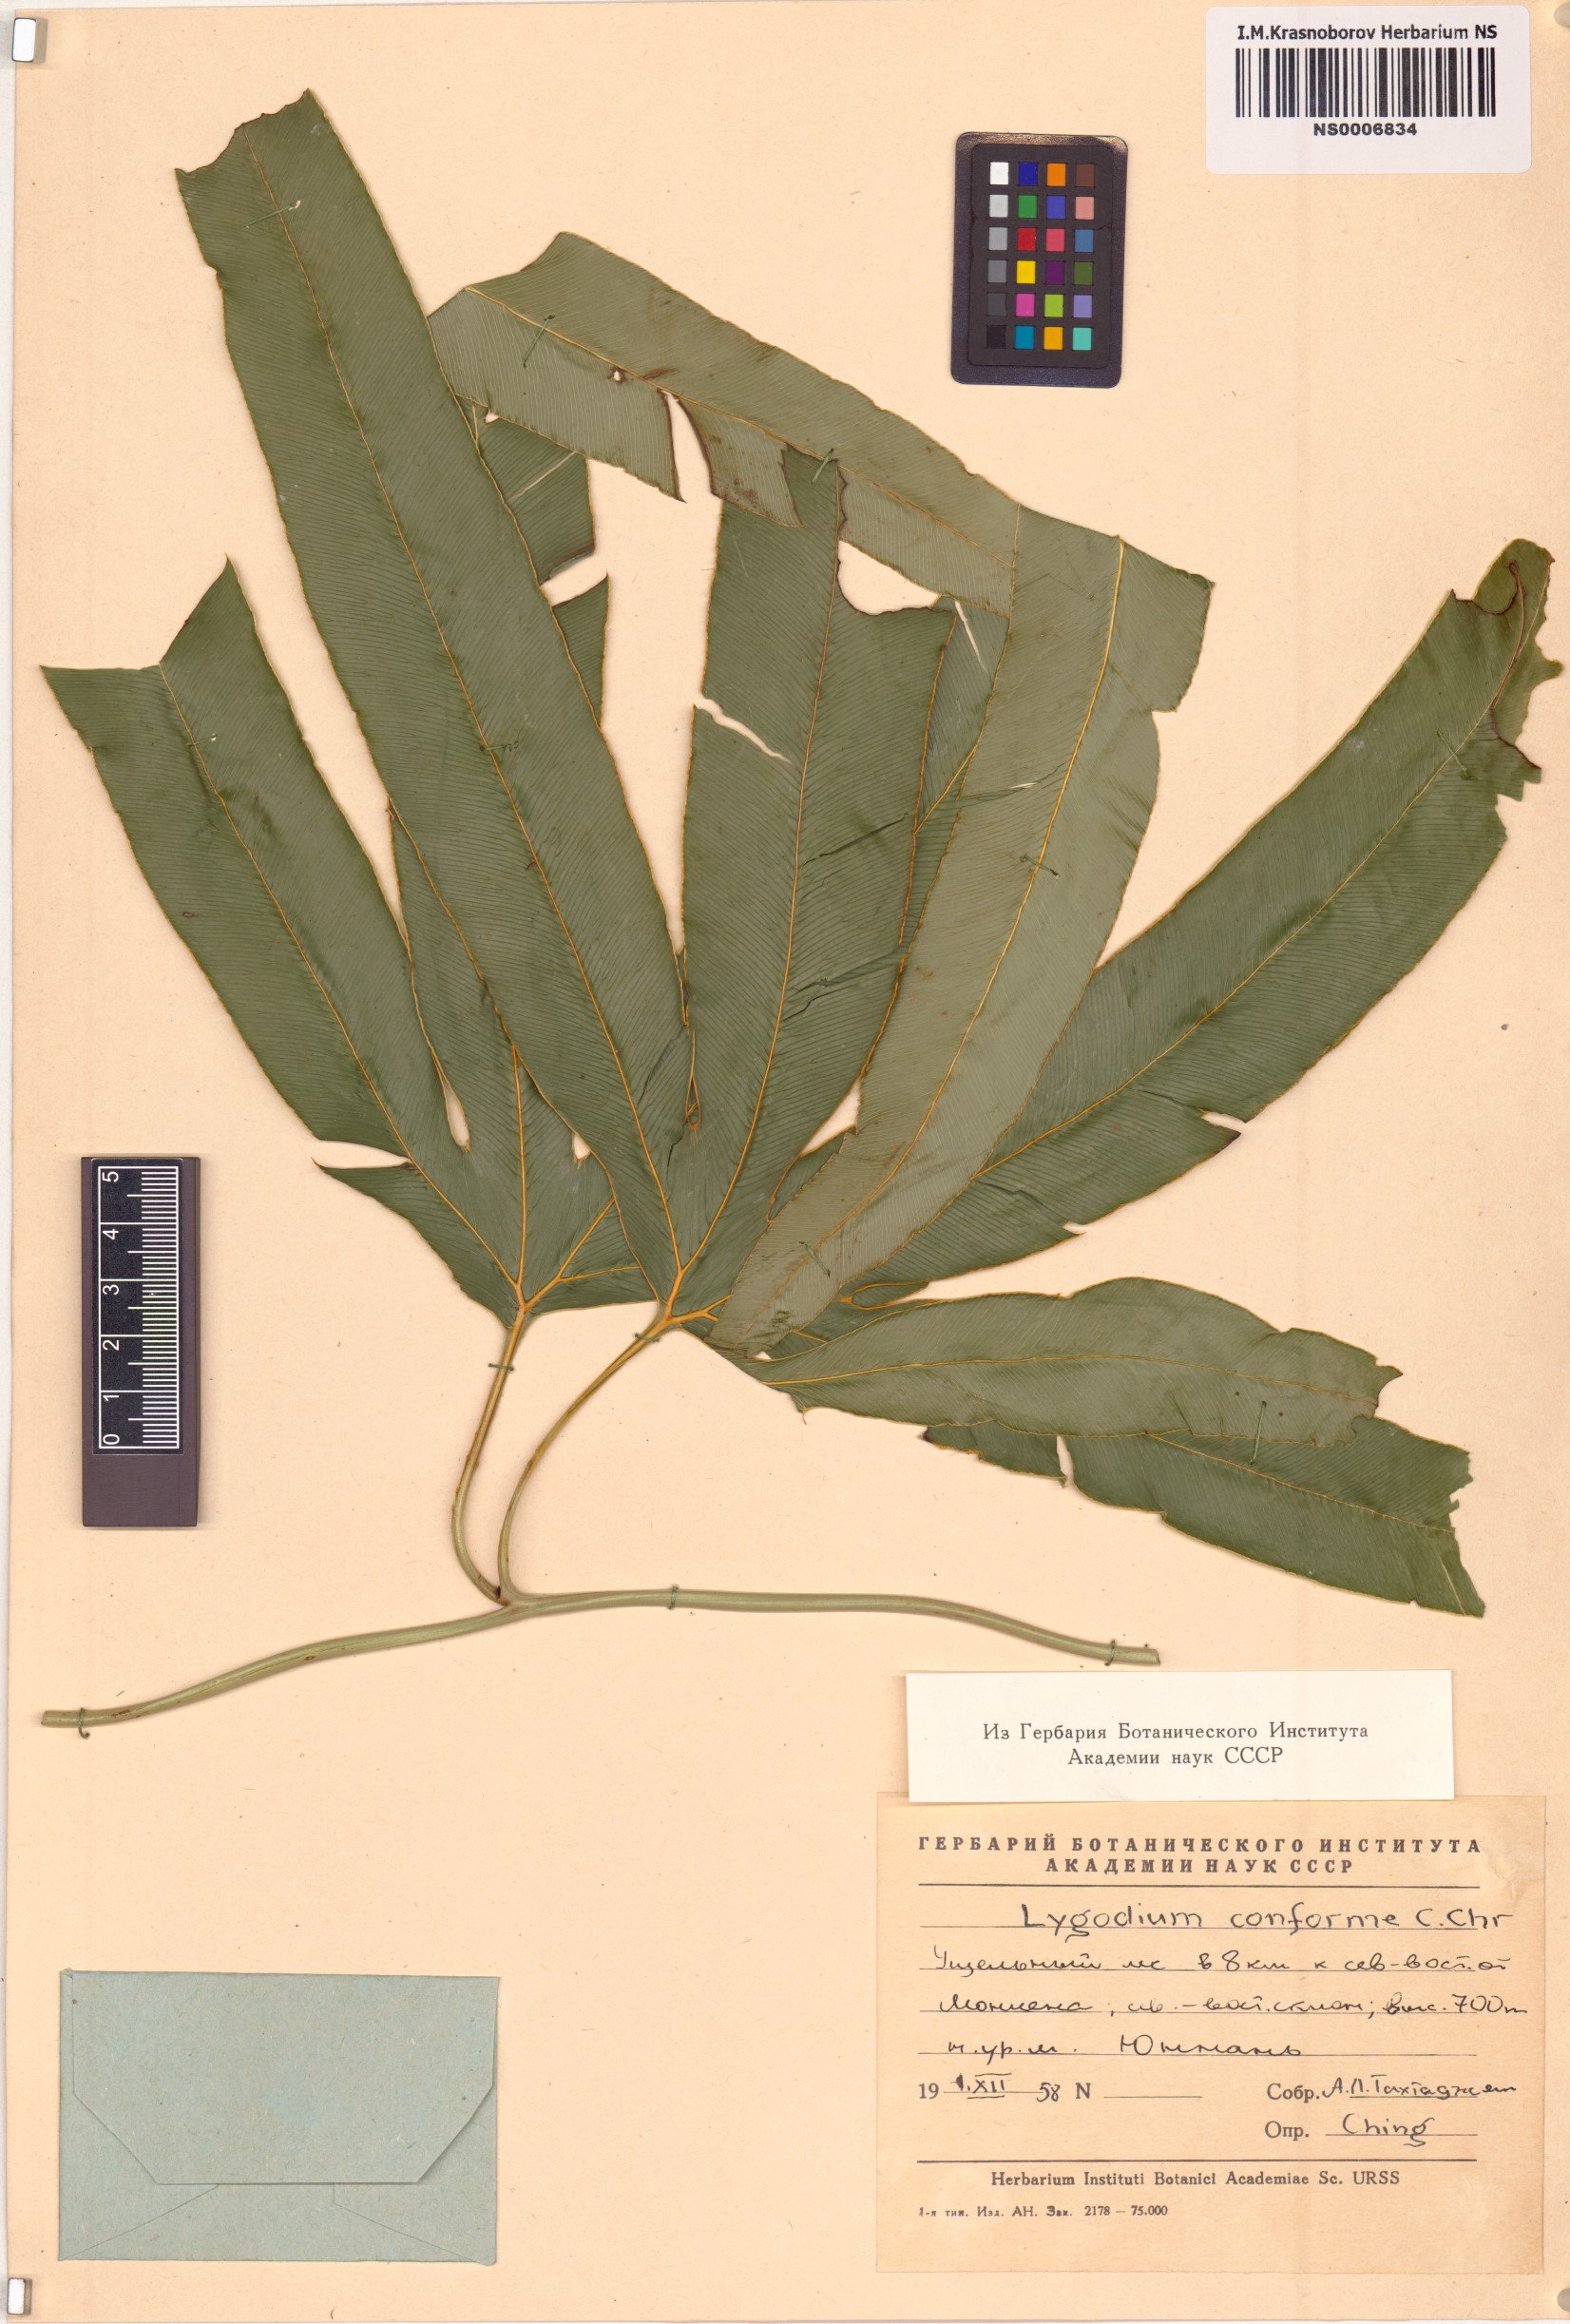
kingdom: Plantae
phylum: Tracheophyta
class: Polypodiopsida
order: Schizaeales
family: Lygodiaceae
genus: Lygodium
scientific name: Lygodium circinnatum
